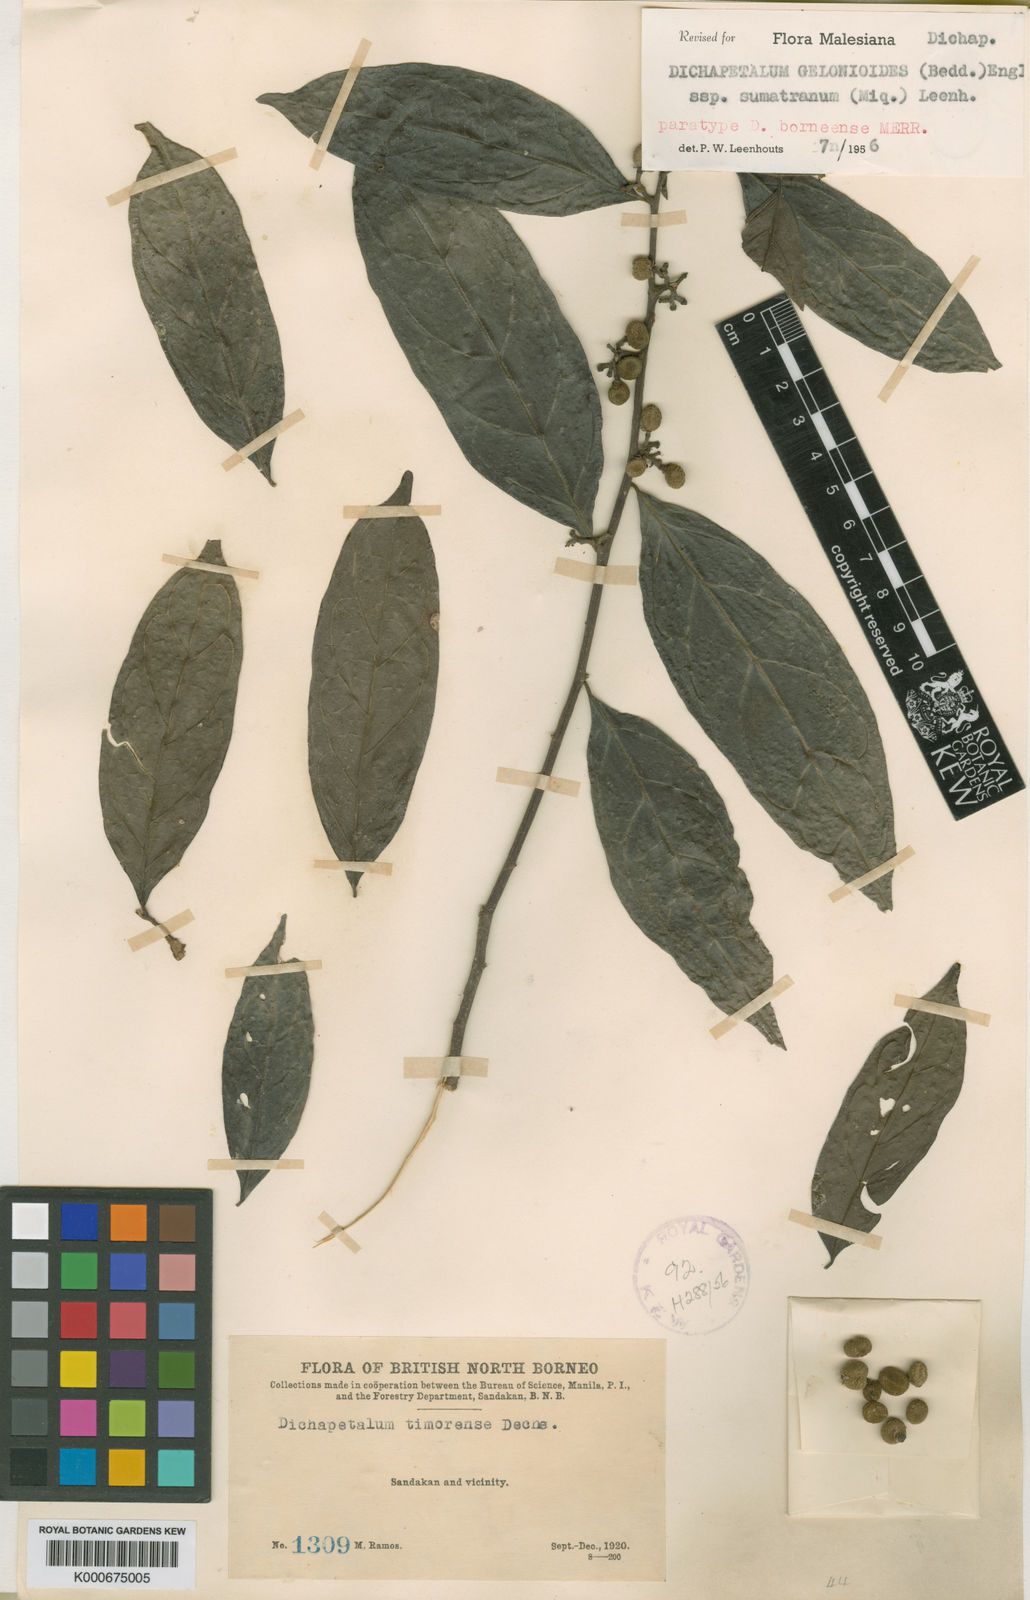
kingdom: Plantae
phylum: Tracheophyta
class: Magnoliopsida
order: Malpighiales
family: Dichapetalaceae
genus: Dichapetalum
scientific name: Dichapetalum gelonioides
